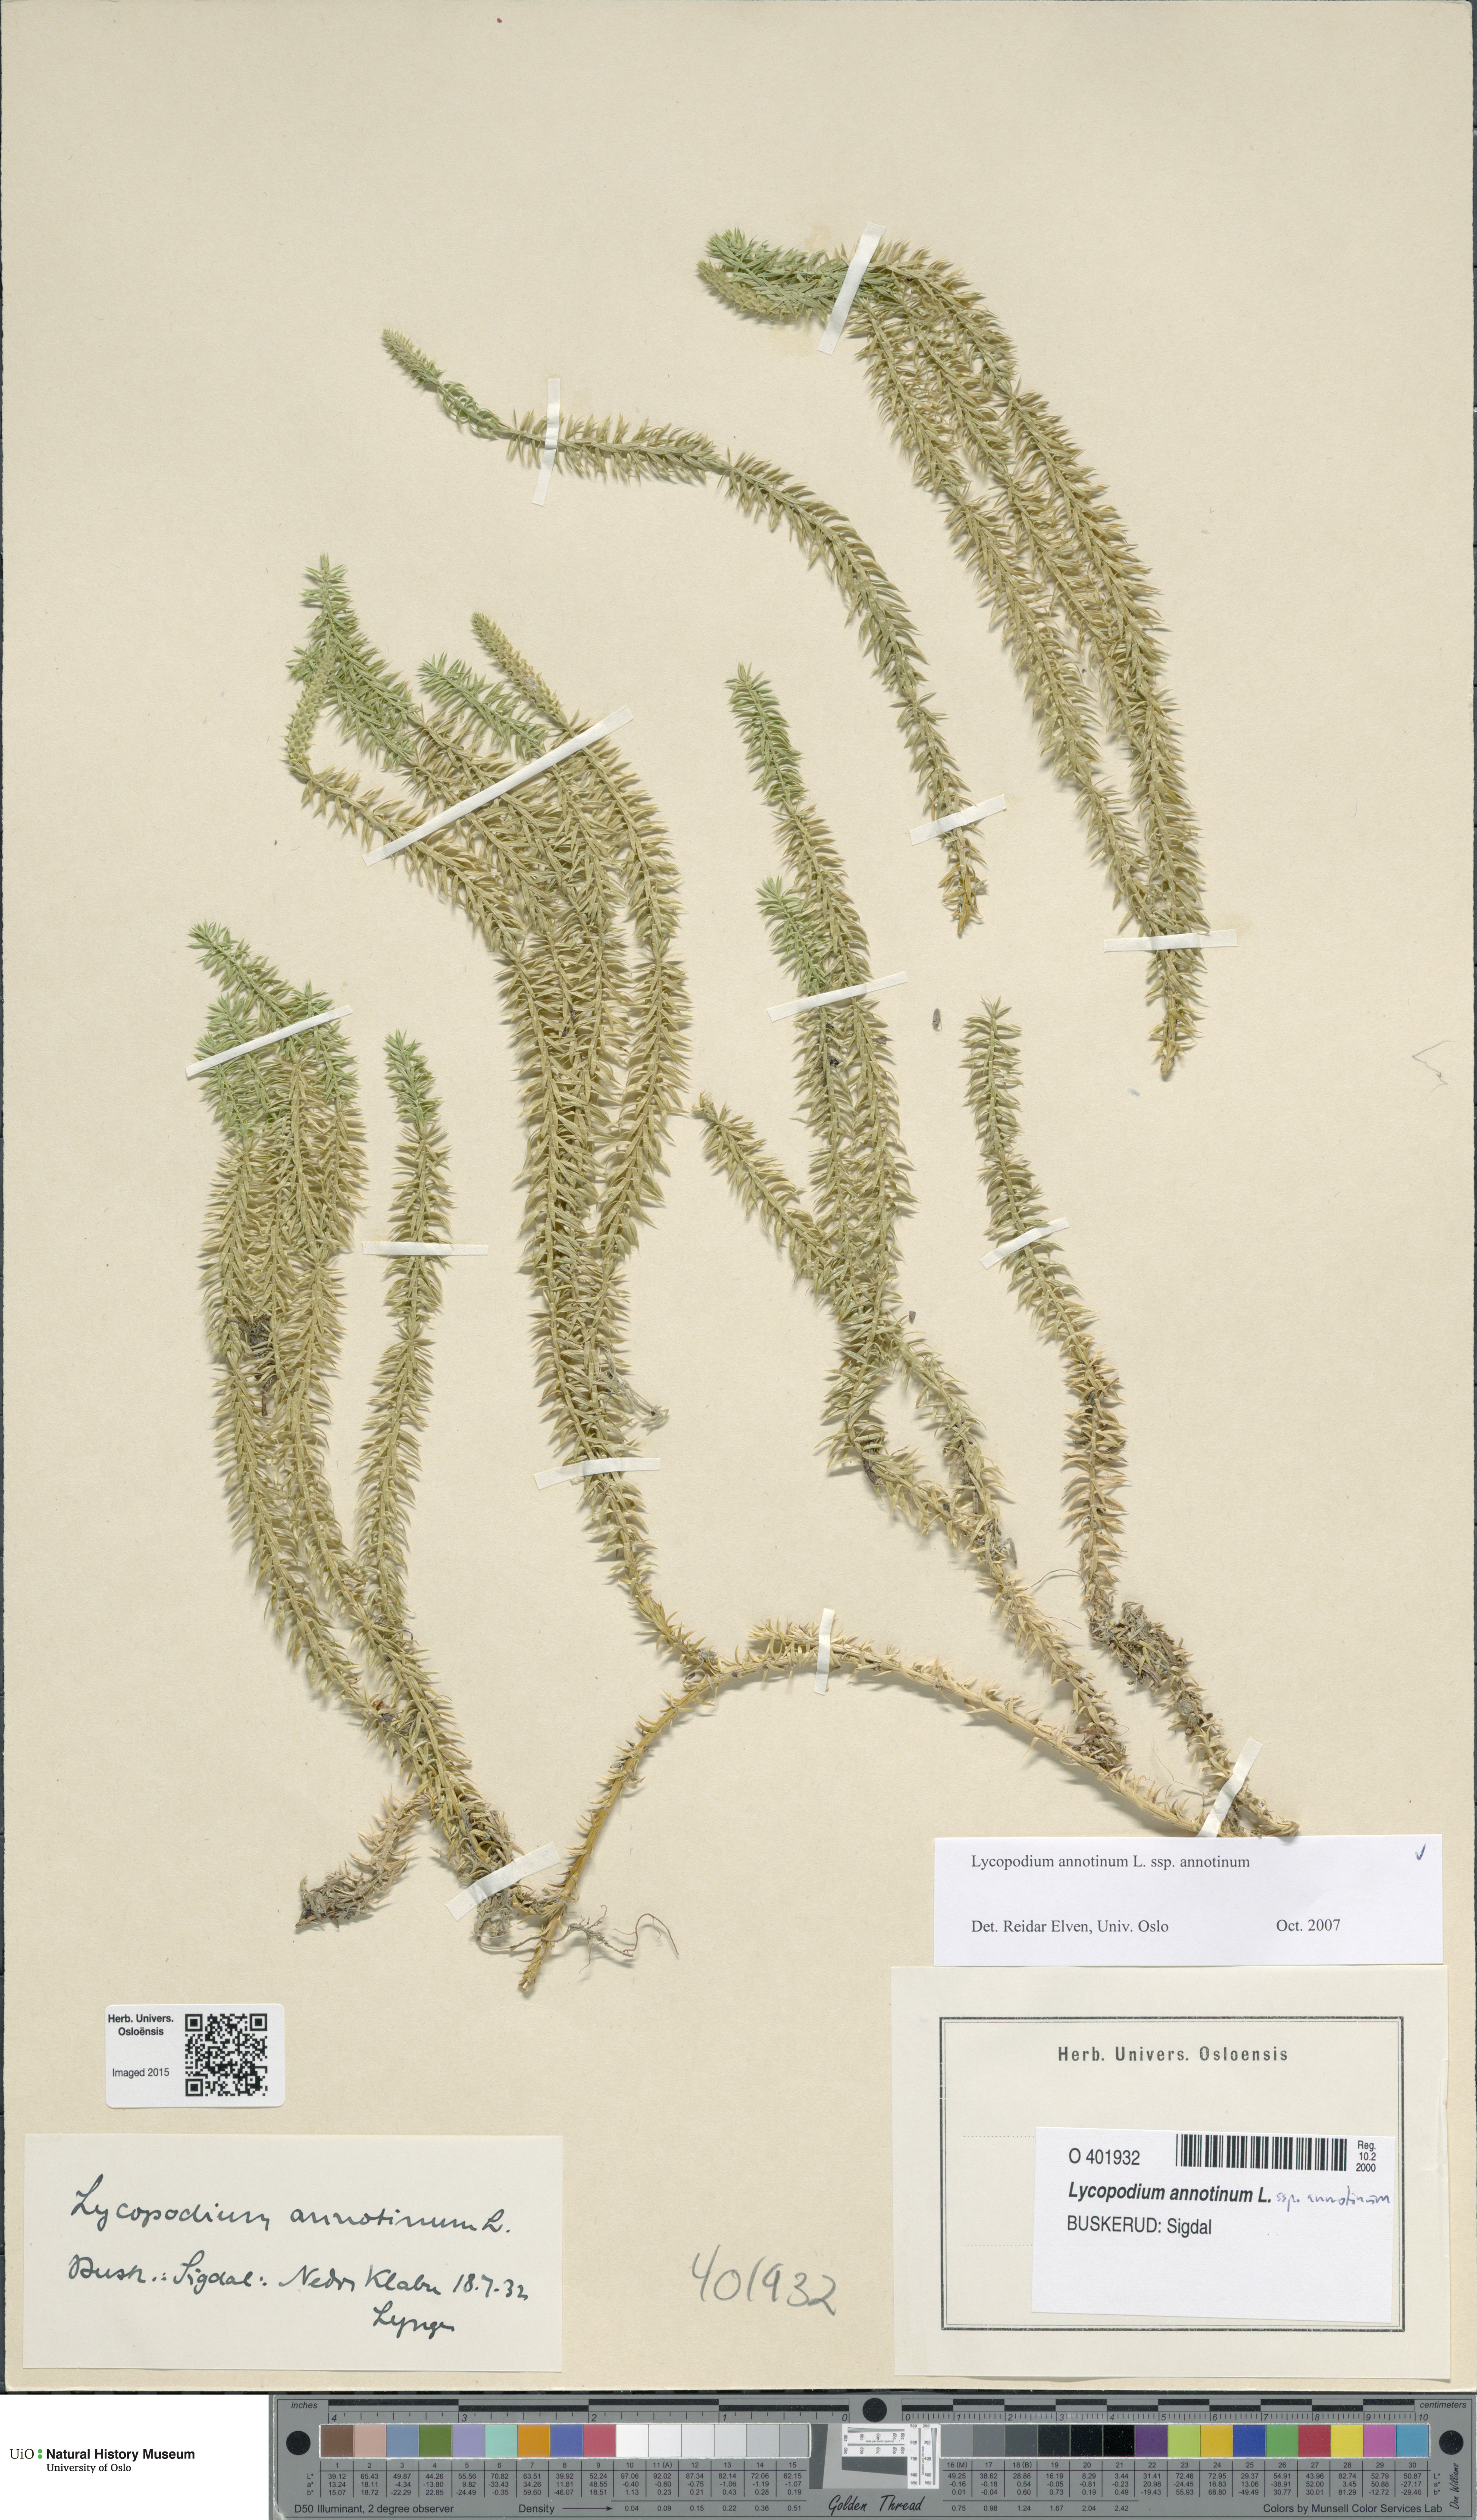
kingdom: Plantae
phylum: Tracheophyta
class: Lycopodiopsida
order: Lycopodiales
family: Lycopodiaceae
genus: Spinulum
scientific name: Spinulum annotinum
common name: Interrupted club-moss
